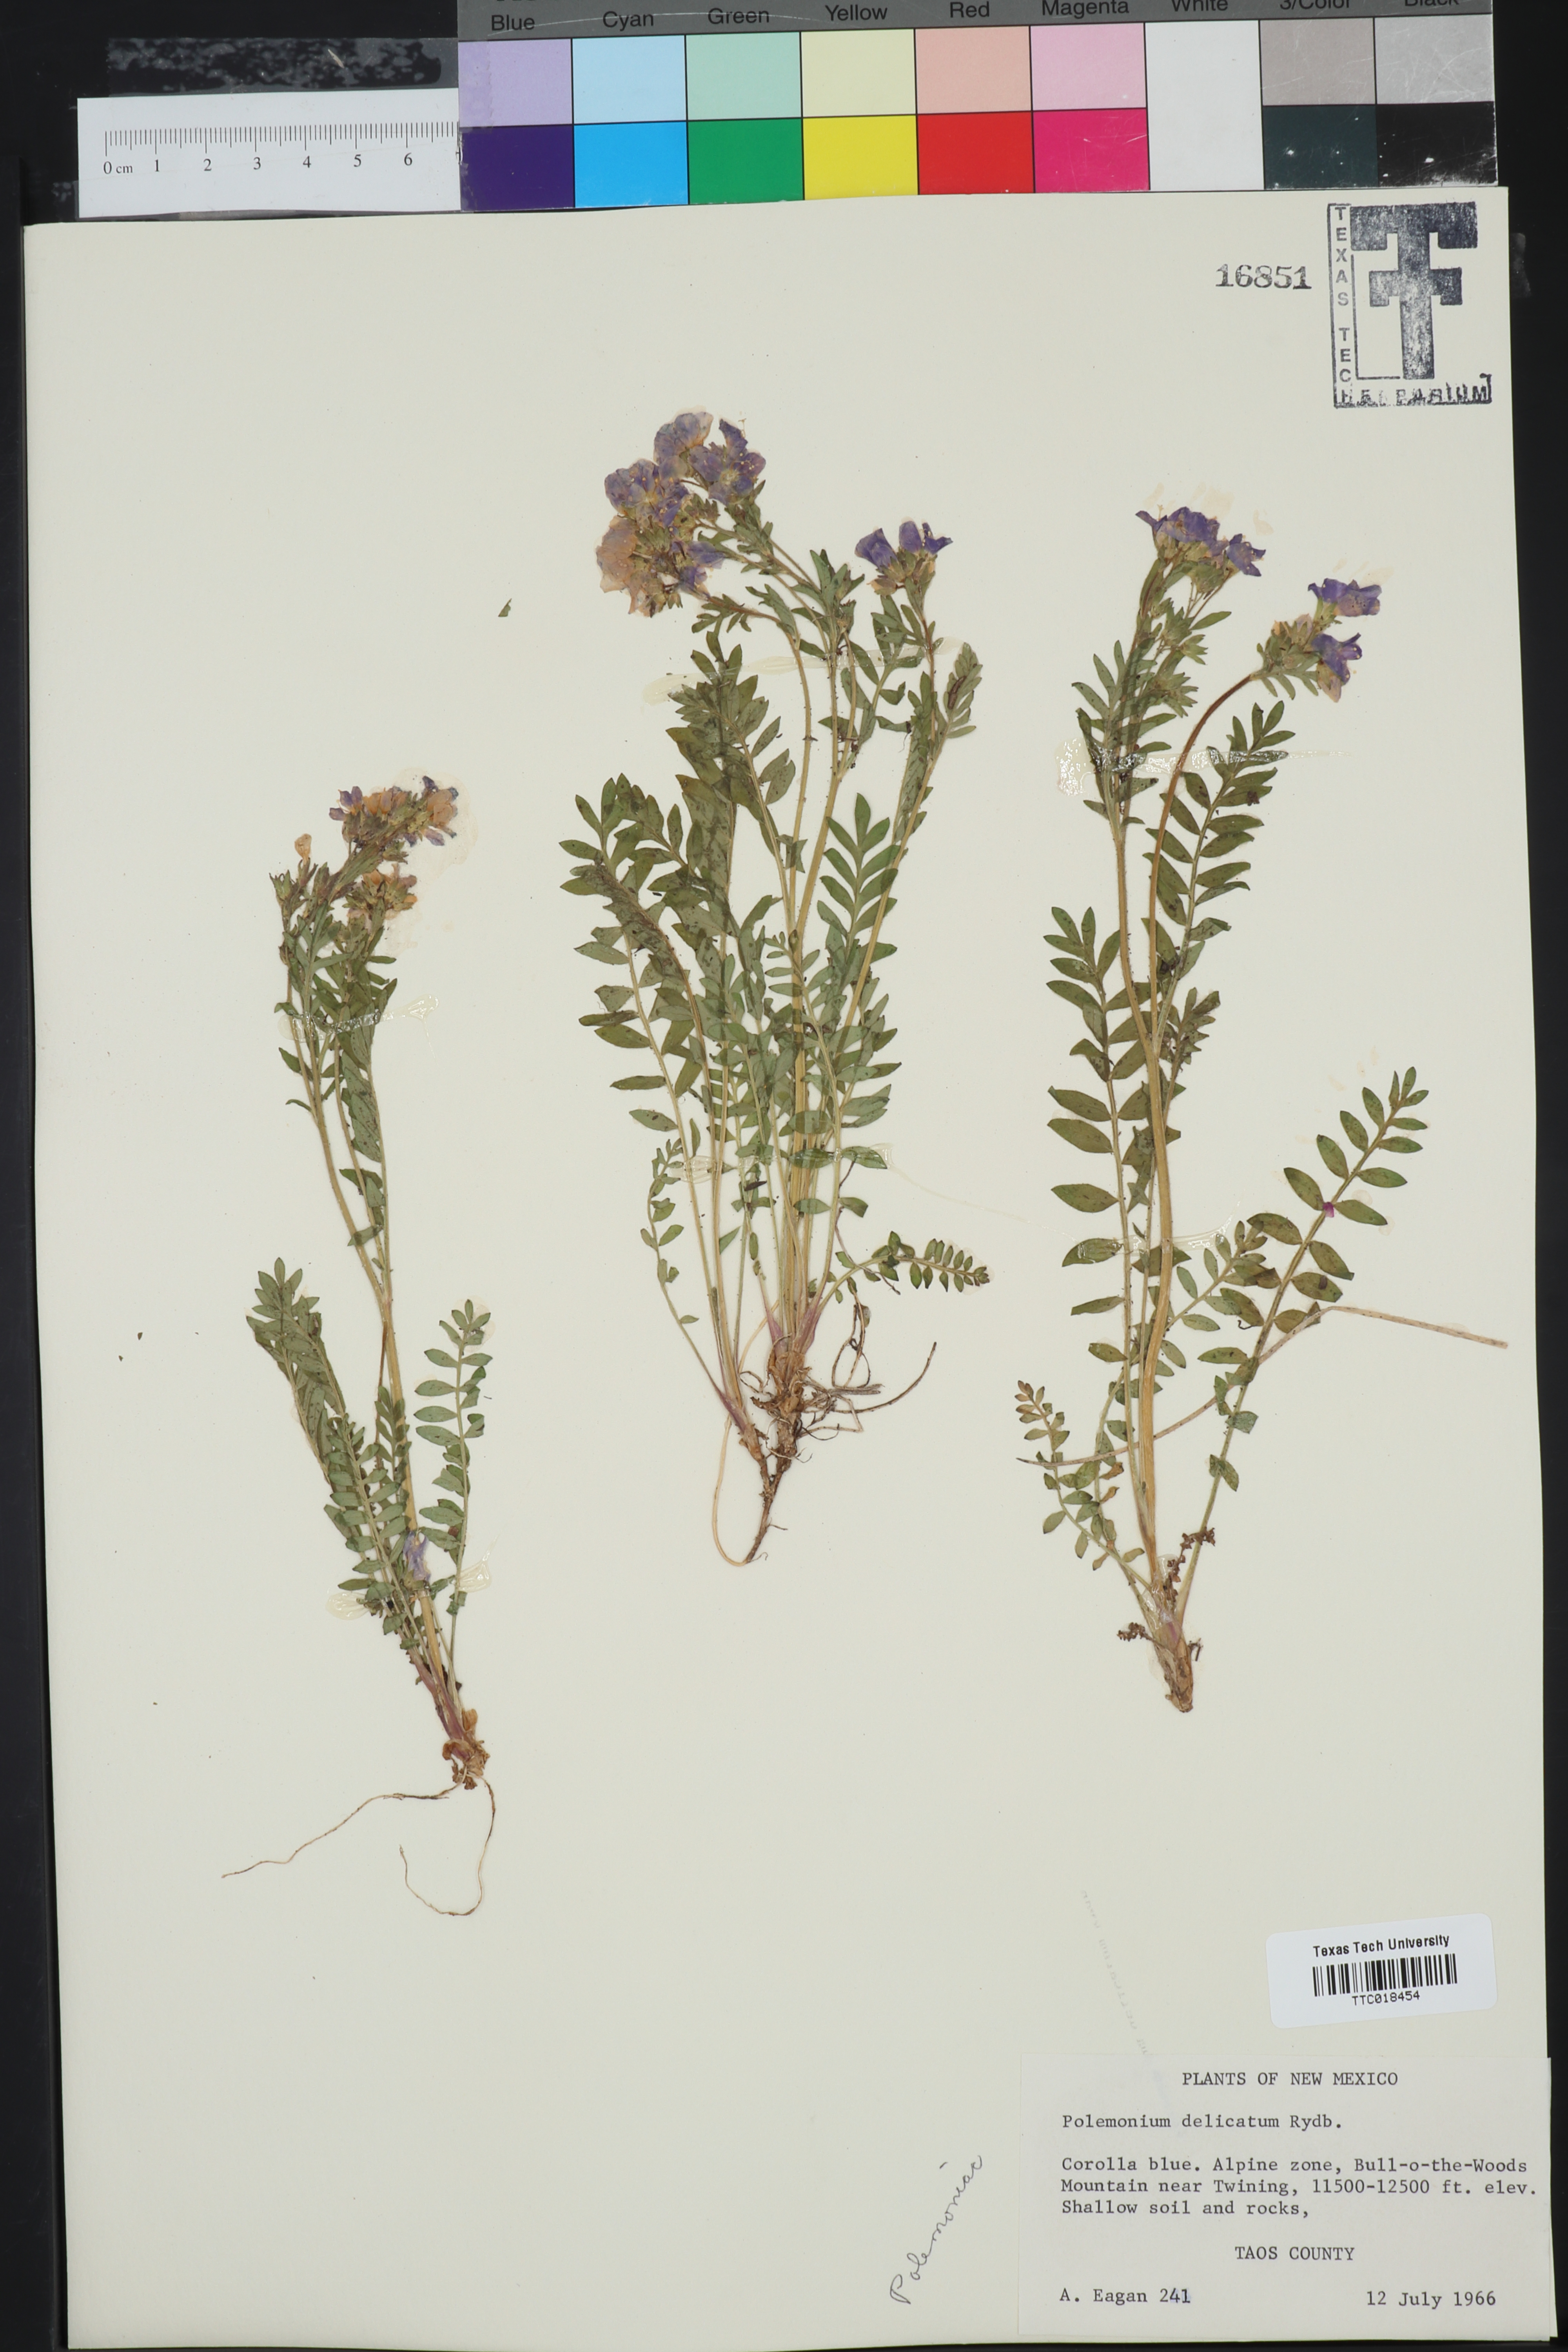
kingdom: Plantae
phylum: Tracheophyta
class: Magnoliopsida
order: Ericales
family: Polemoniaceae
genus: Polemonium
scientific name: Polemonium pulcherrimum
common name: Short jacob's-ladder
